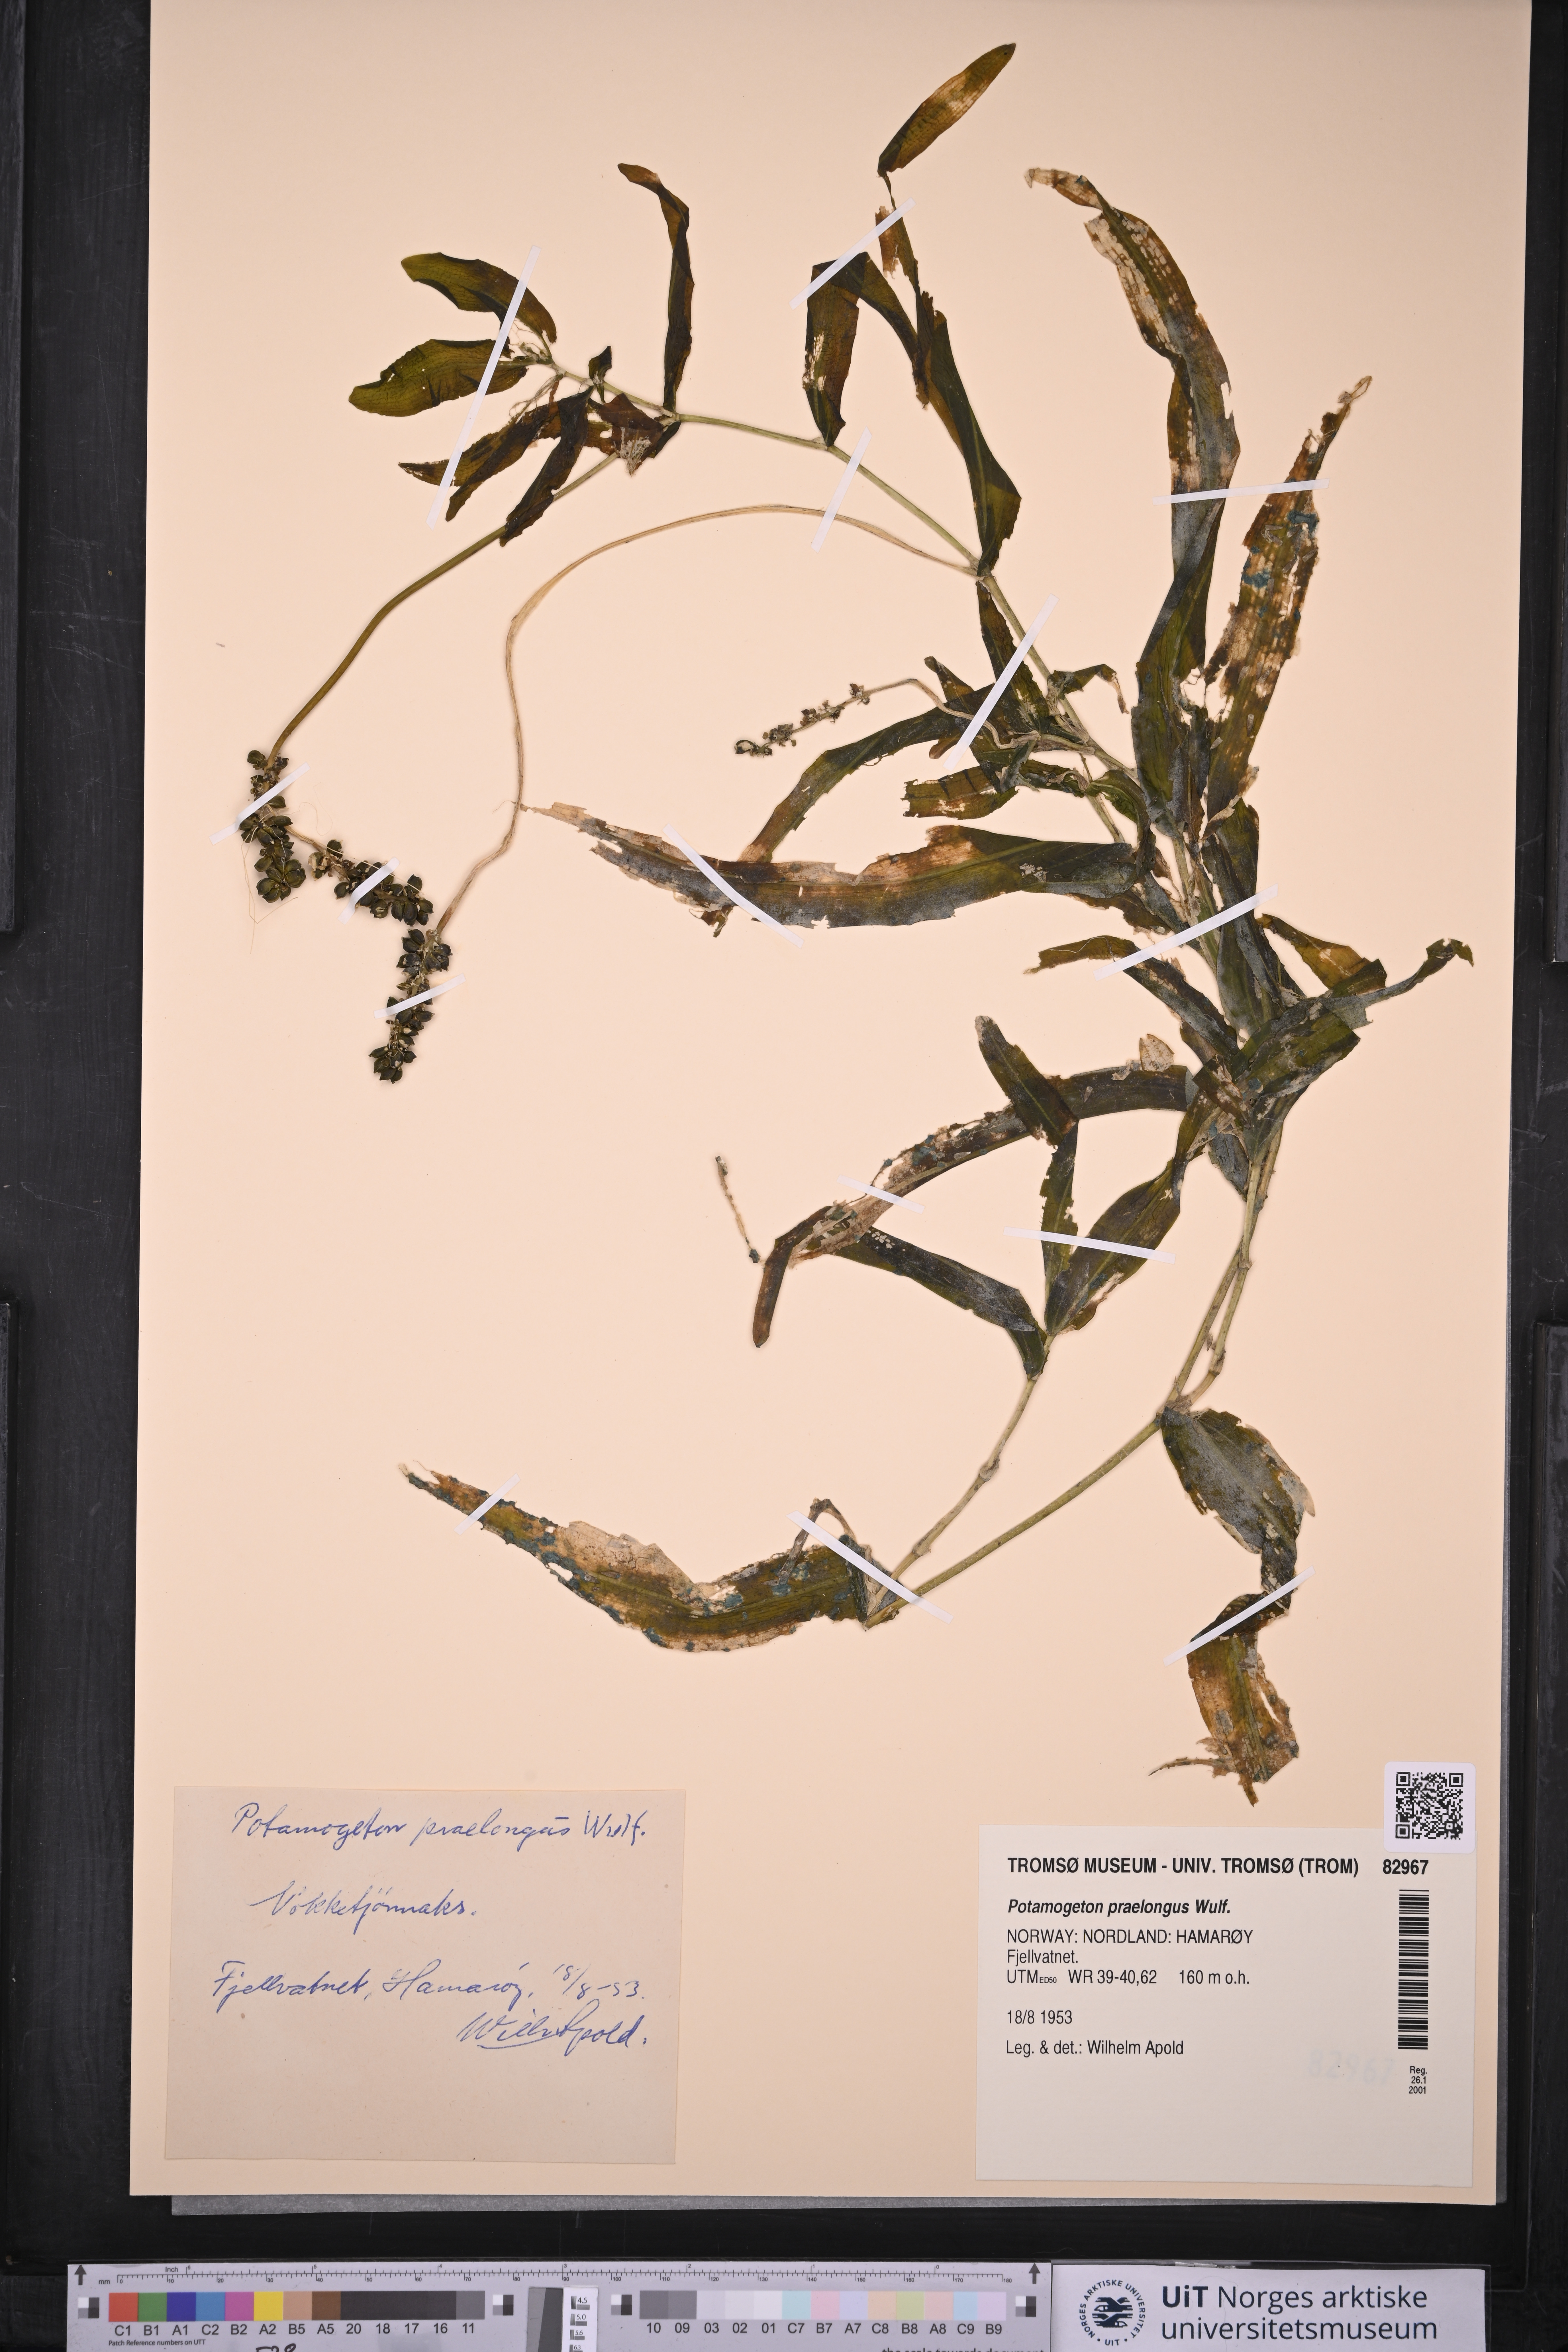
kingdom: Plantae
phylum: Tracheophyta
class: Liliopsida
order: Alismatales
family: Potamogetonaceae
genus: Potamogeton
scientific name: Potamogeton praelongus
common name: Long-stalked pondweed
